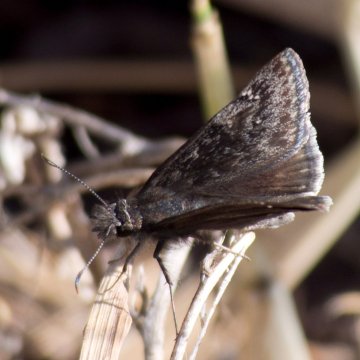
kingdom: Animalia
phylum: Arthropoda
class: Insecta
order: Lepidoptera
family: Hesperiidae
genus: Erynnis
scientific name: Erynnis afranius
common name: Afranius Duskywing
